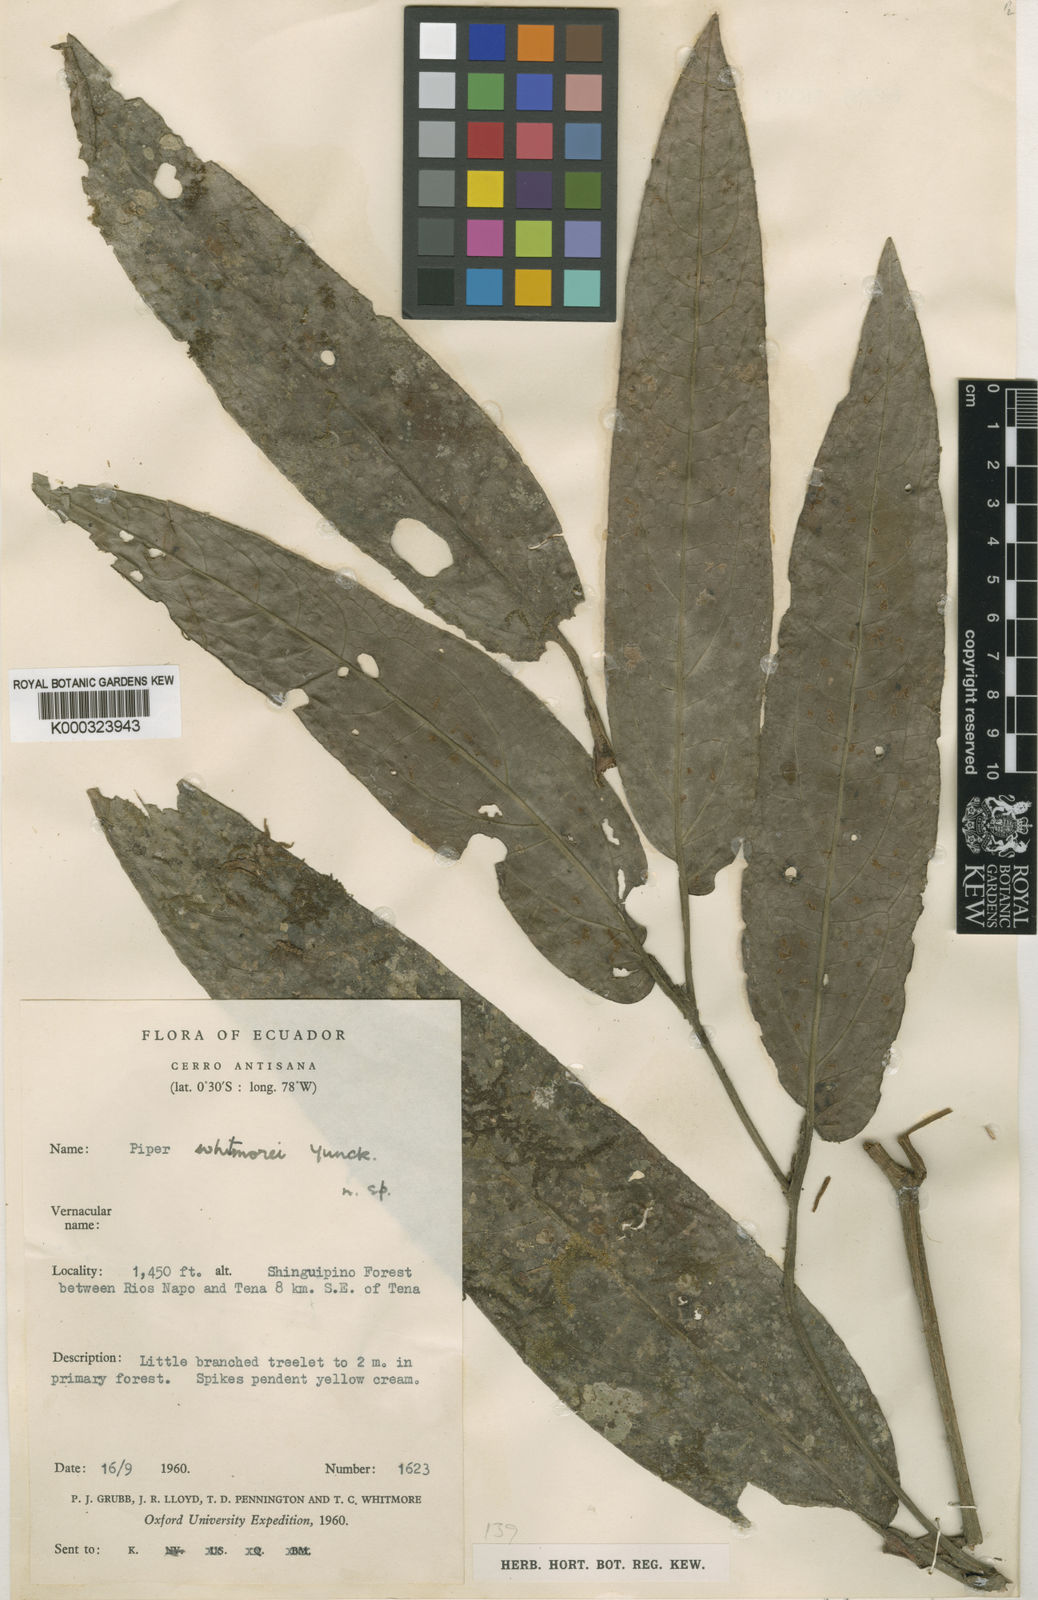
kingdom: Plantae
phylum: Tracheophyta
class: Magnoliopsida
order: Piperales
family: Piperaceae
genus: Piper
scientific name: Piper truncatum
